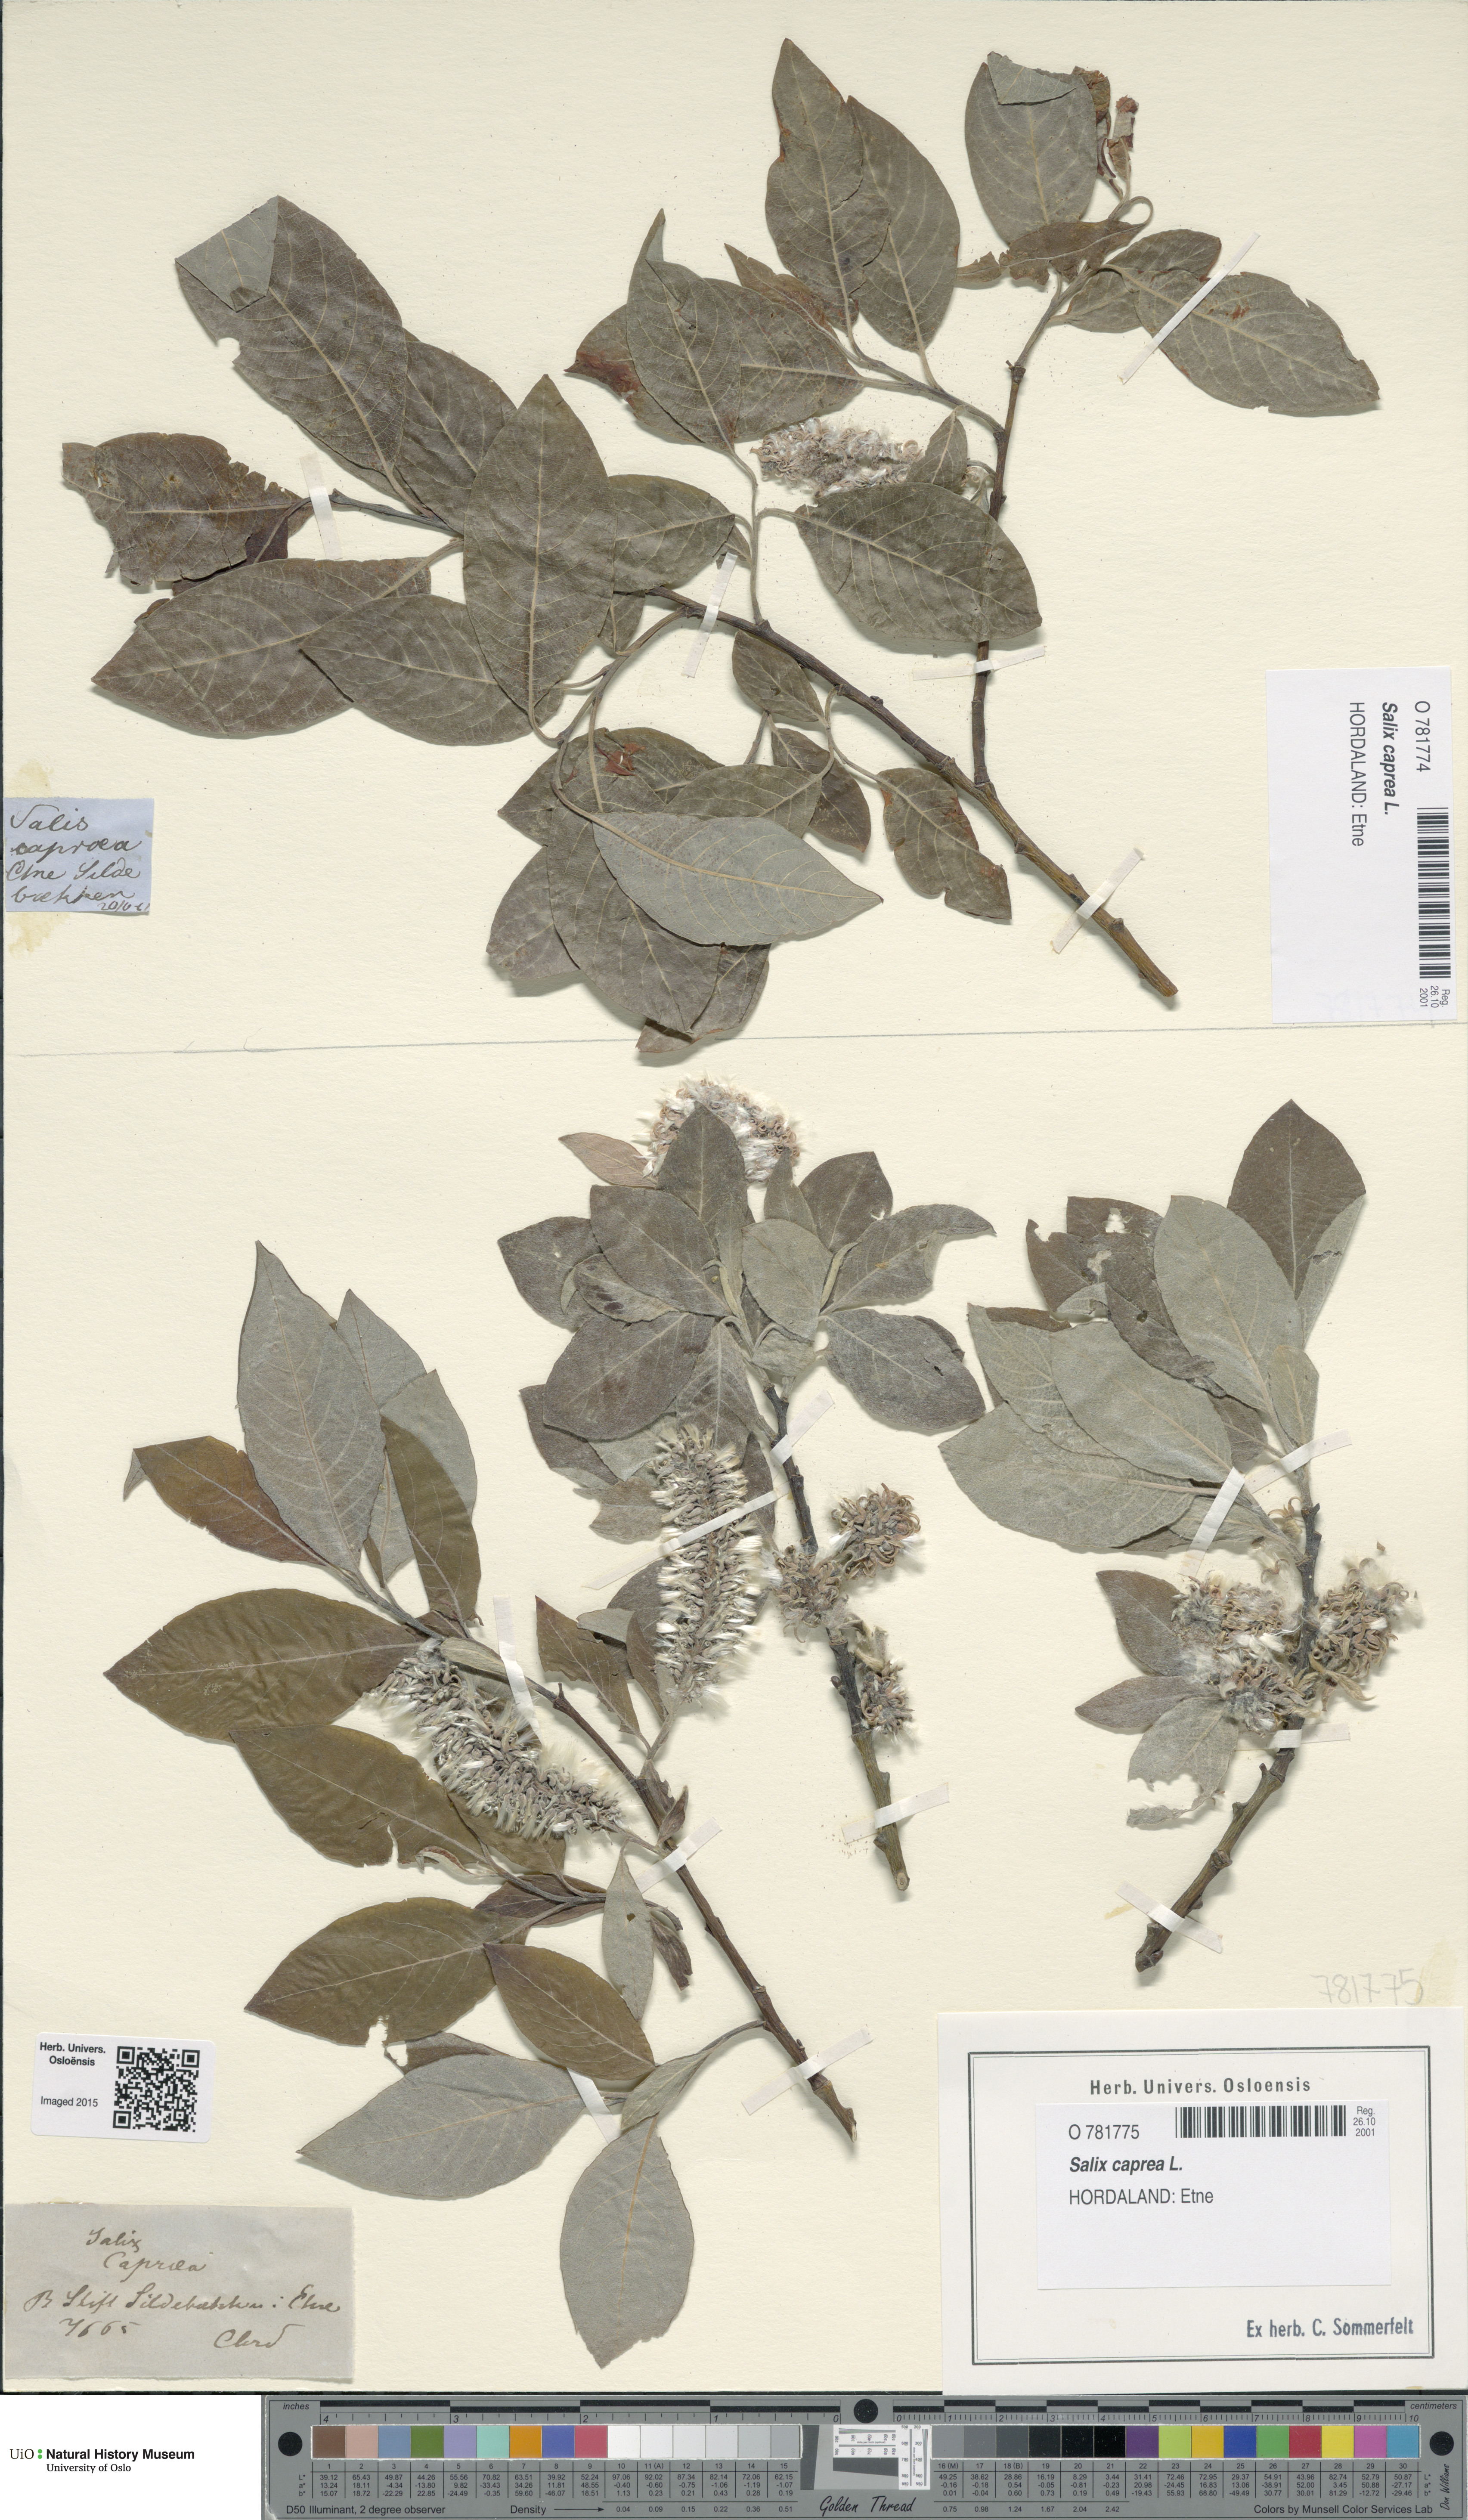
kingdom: Plantae
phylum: Tracheophyta
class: Magnoliopsida
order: Malpighiales
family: Salicaceae
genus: Salix
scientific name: Salix caprea
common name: Goat willow
